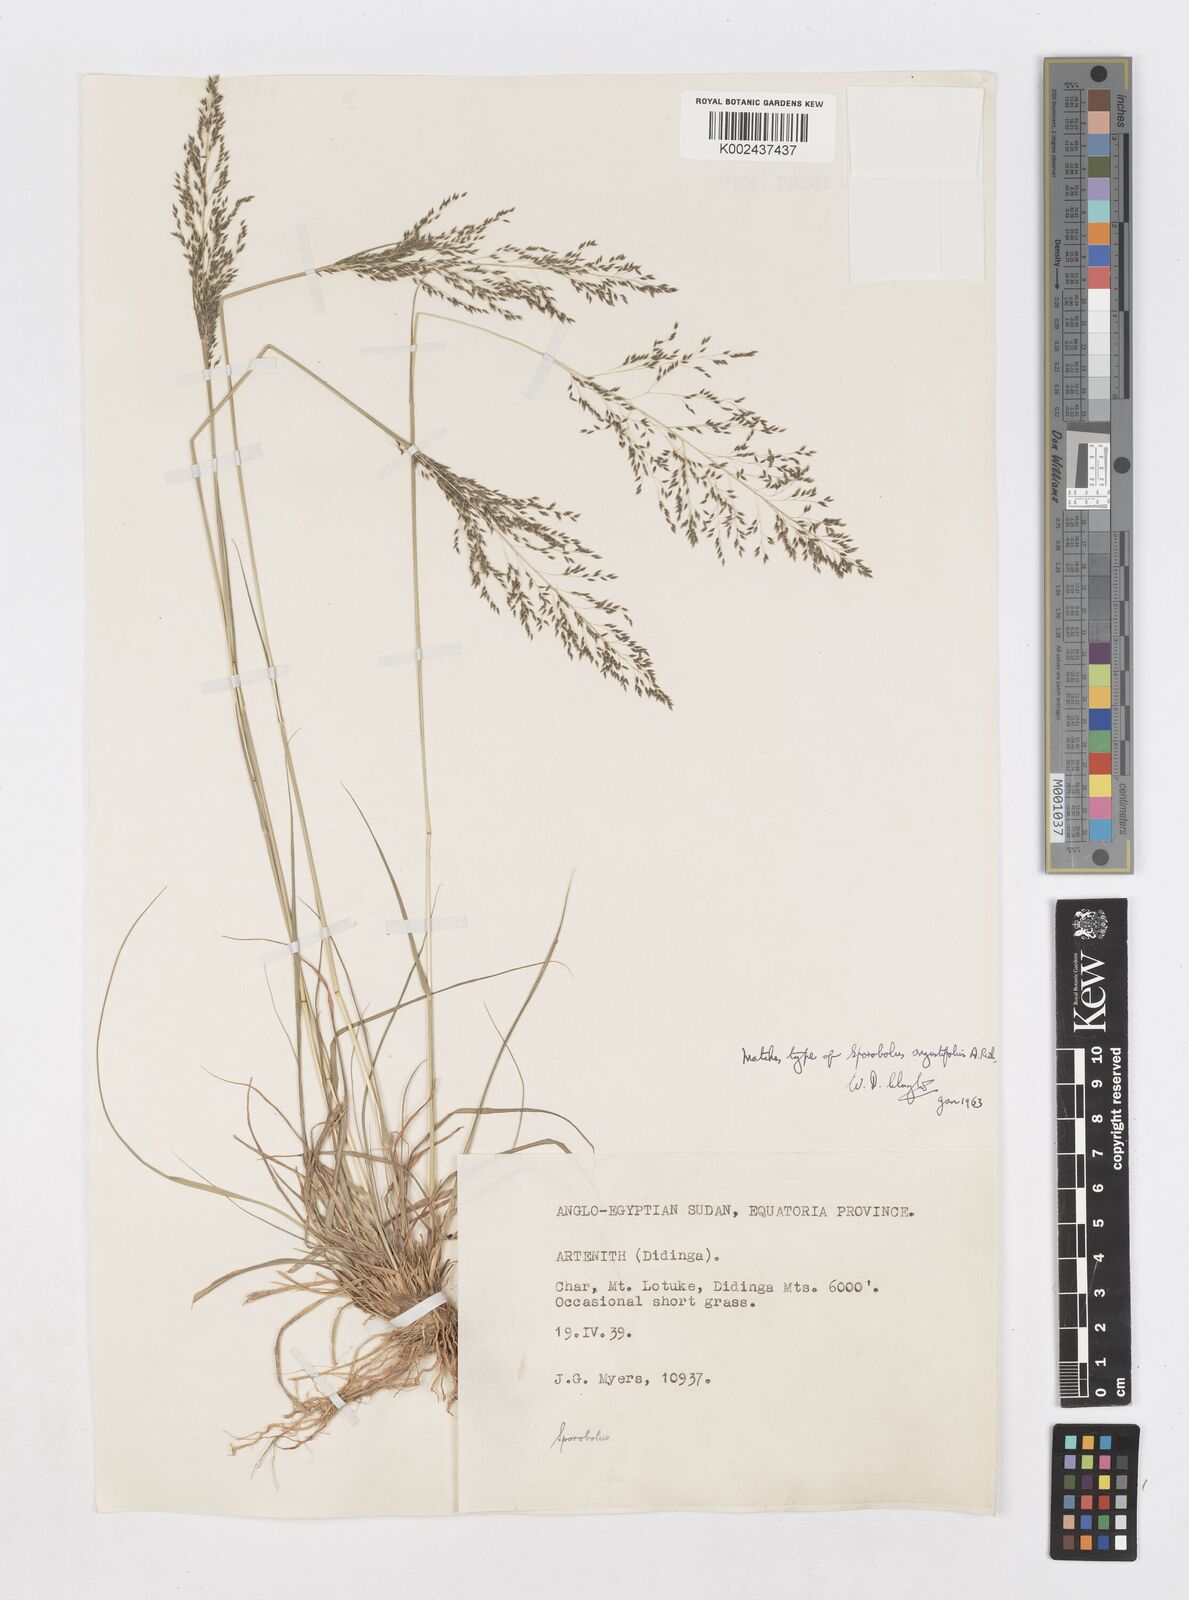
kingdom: Plantae
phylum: Tracheophyta
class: Liliopsida
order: Poales
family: Poaceae
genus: Sporobolus
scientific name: Sporobolus angustifolius
